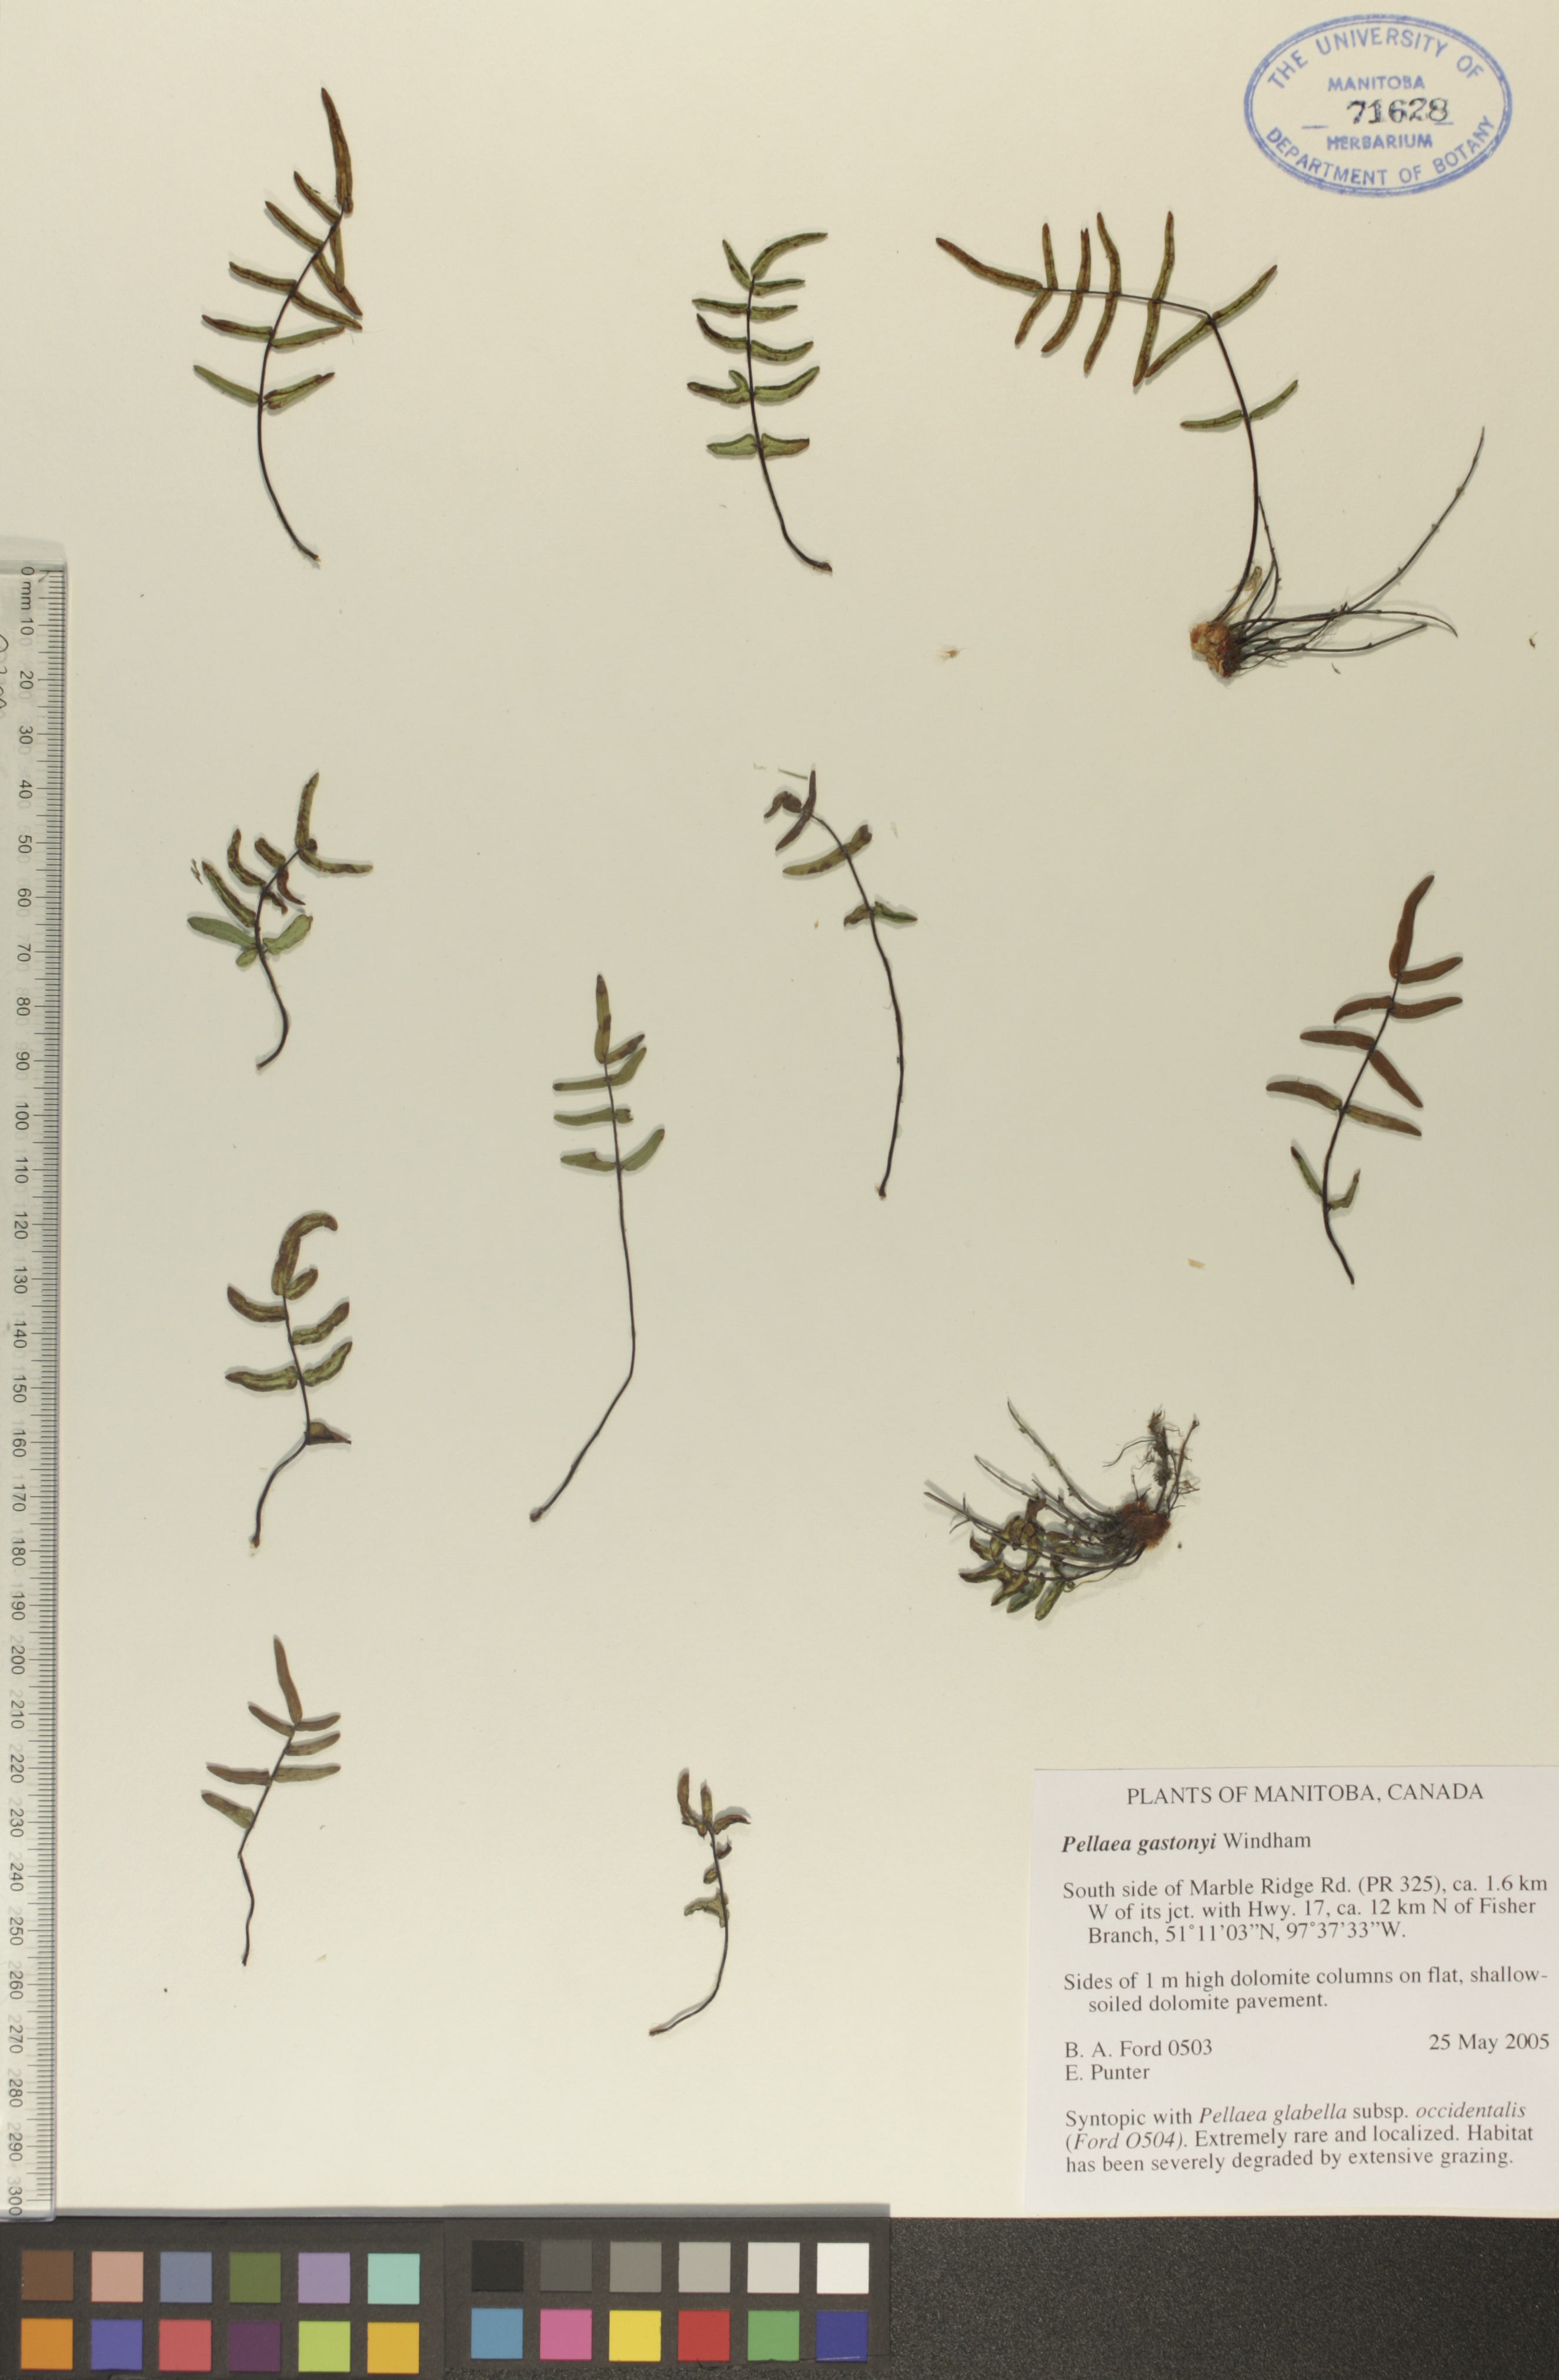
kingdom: Plantae
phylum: Tracheophyta
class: Polypodiopsida
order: Polypodiales
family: Pteridaceae
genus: Pellaea
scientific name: Pellaea gastonyi
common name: Gastony's cliffbrake
